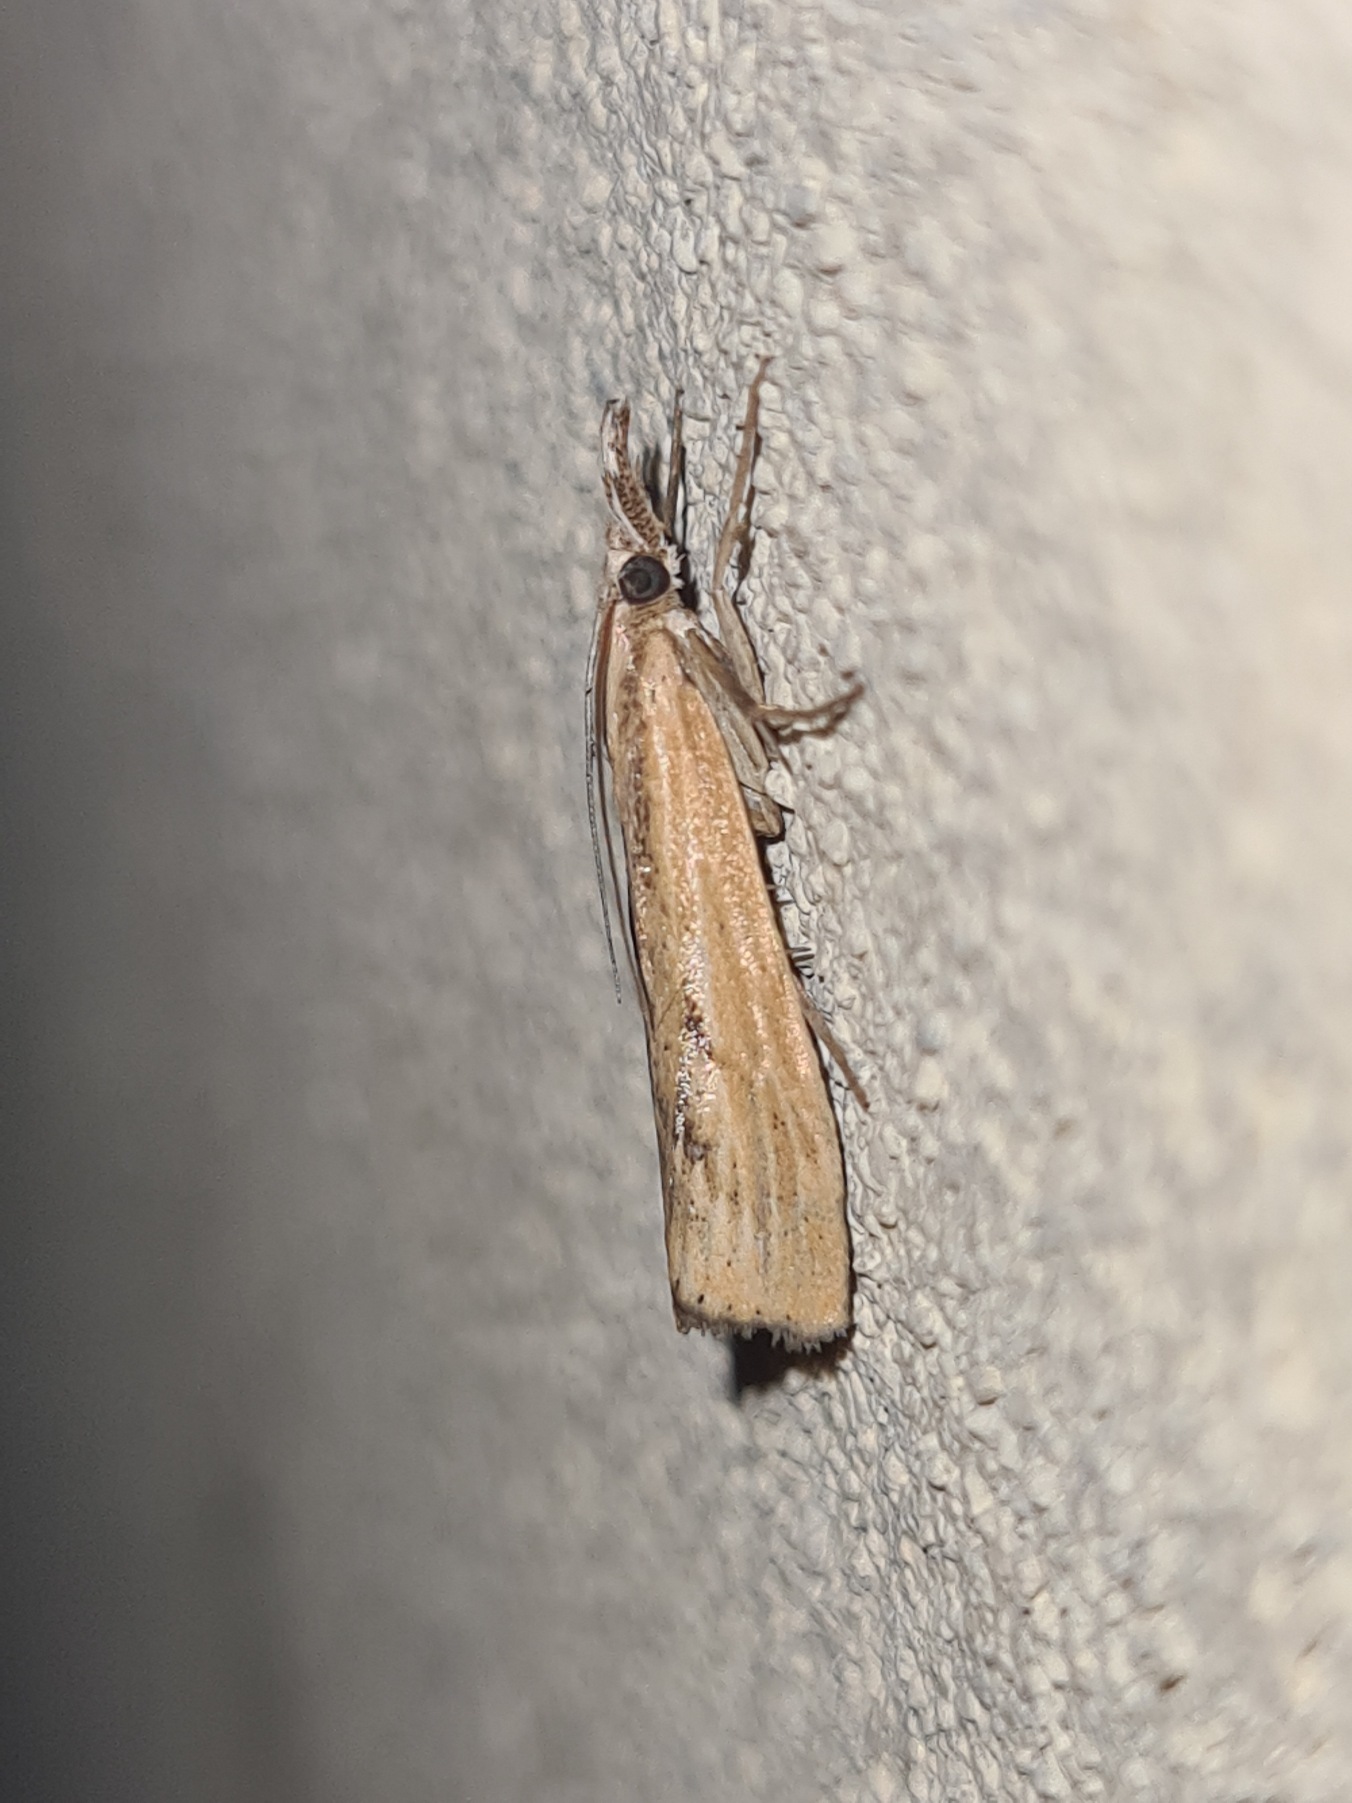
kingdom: Animalia
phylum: Arthropoda
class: Insecta
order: Lepidoptera
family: Crambidae
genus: Agriphila
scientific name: Agriphila inquinatella
